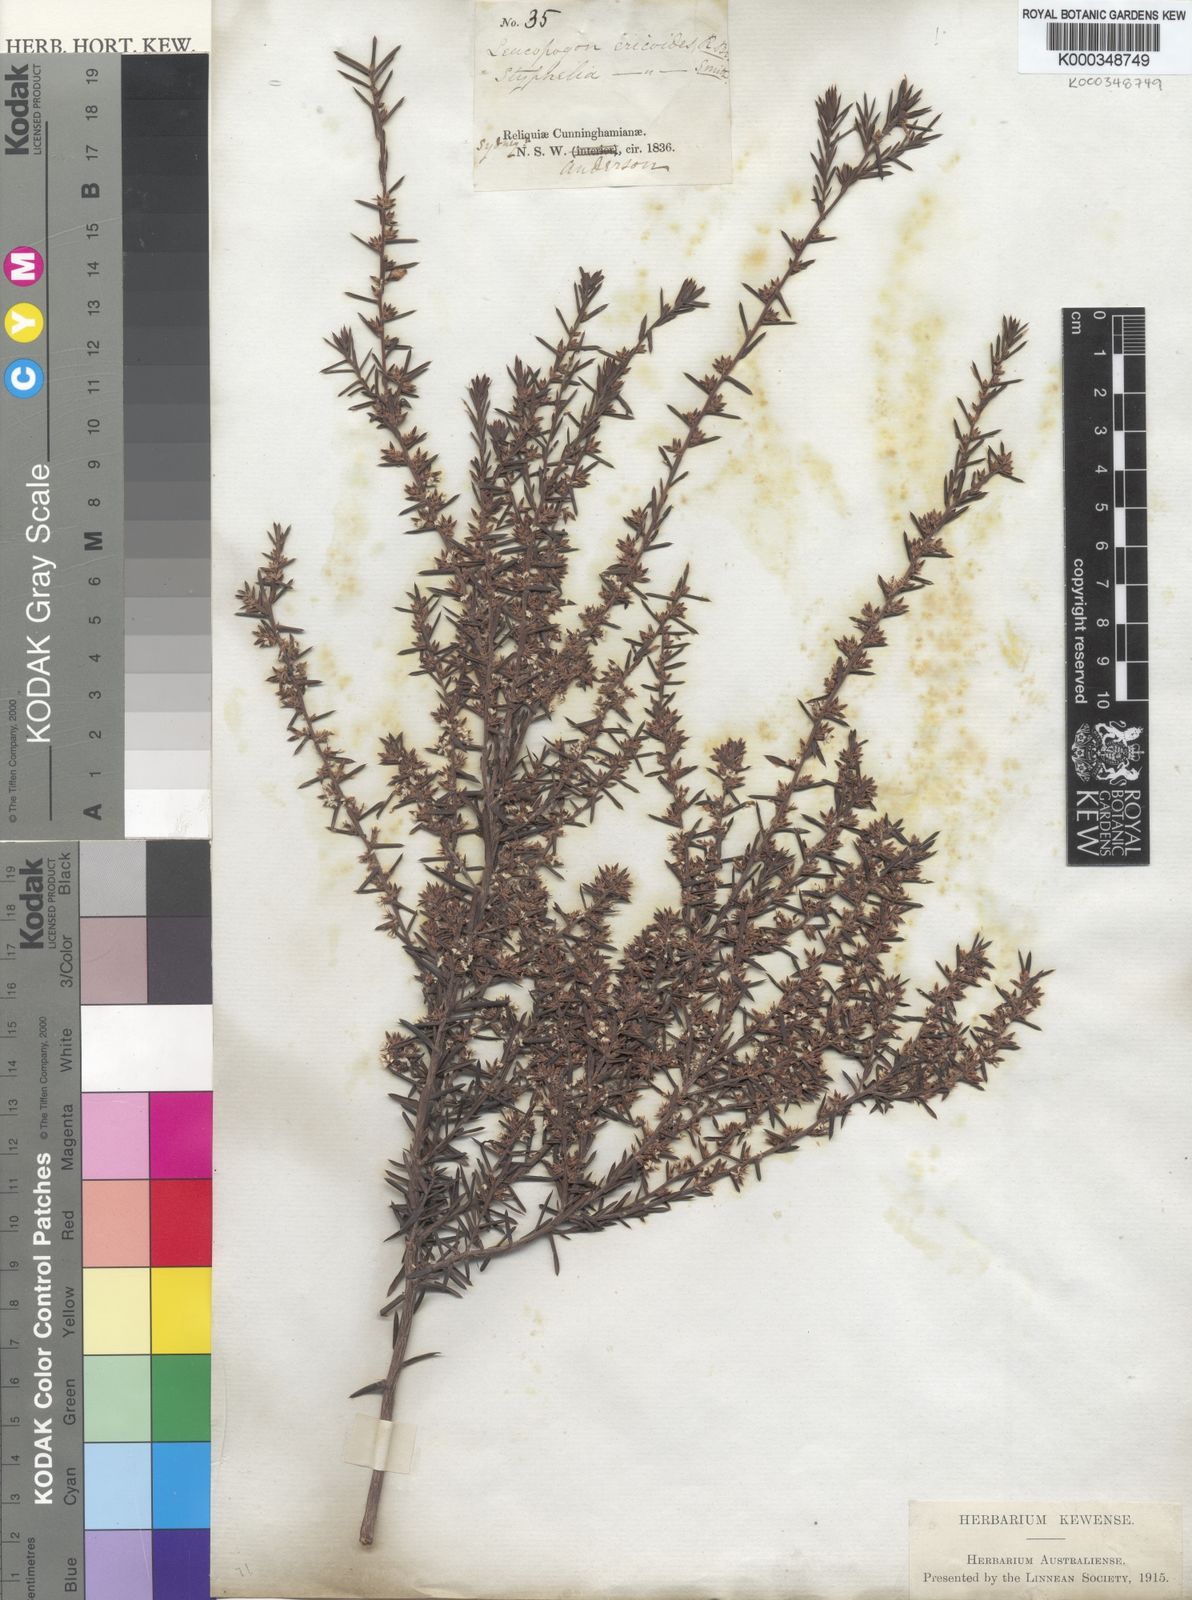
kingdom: Plantae
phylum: Tracheophyta
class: Magnoliopsida
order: Ericales
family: Ericaceae
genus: Styphelia
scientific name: Styphelia ericoides
